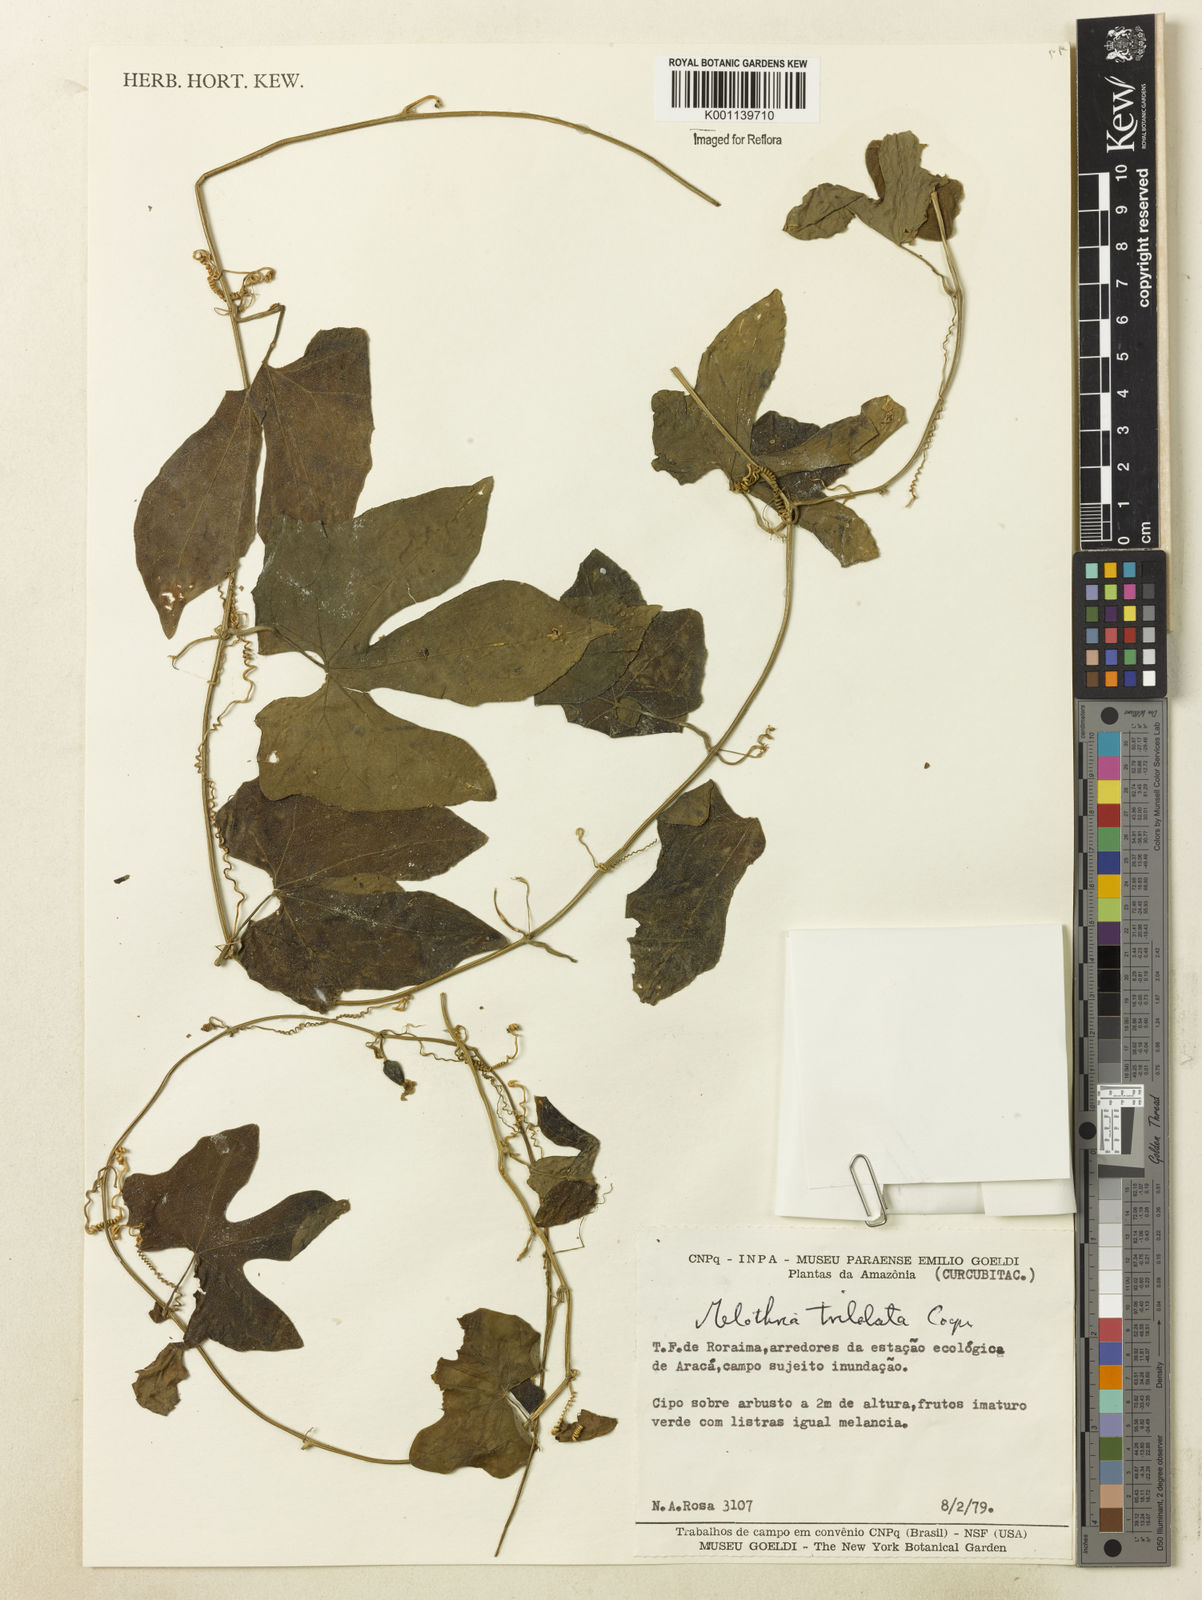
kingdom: Plantae
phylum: Tracheophyta
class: Magnoliopsida
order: Cucurbitales
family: Cucurbitaceae
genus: Melothria
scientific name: Melothria trilobata
